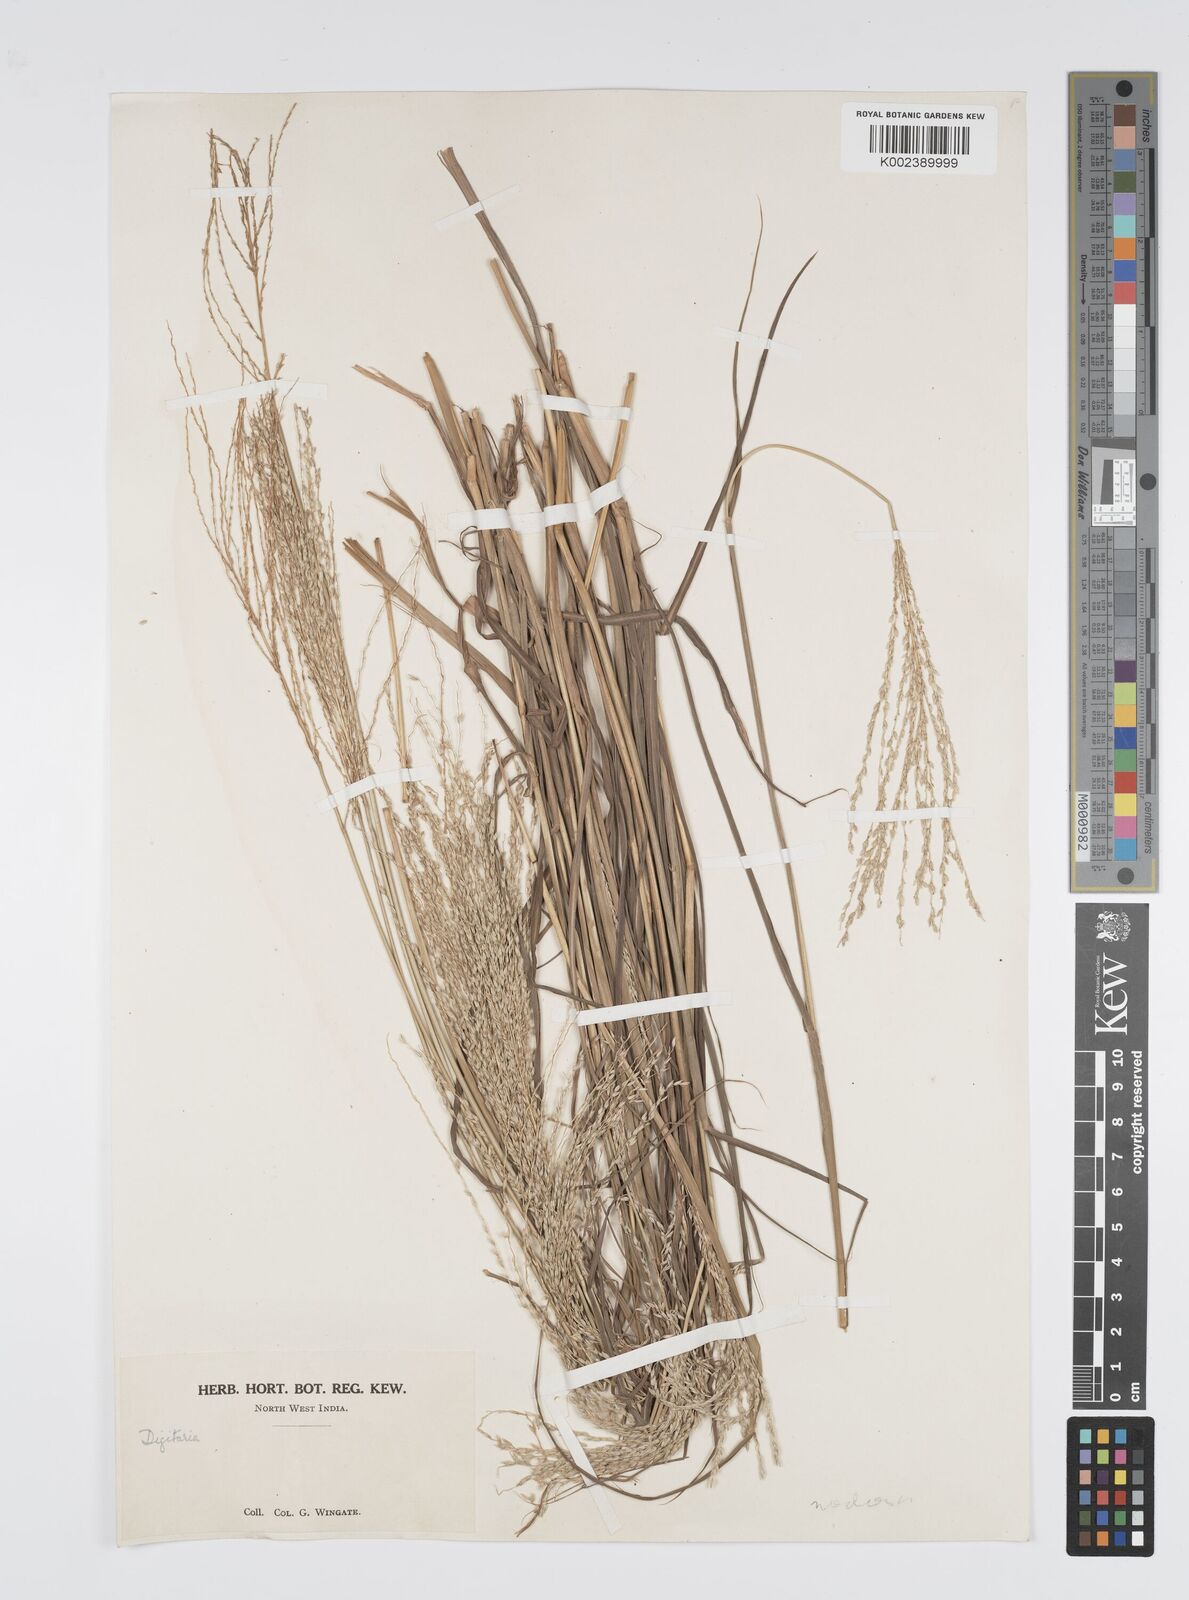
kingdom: Plantae
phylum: Tracheophyta
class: Liliopsida
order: Poales
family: Poaceae
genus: Digitaria
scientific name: Digitaria nodosa
